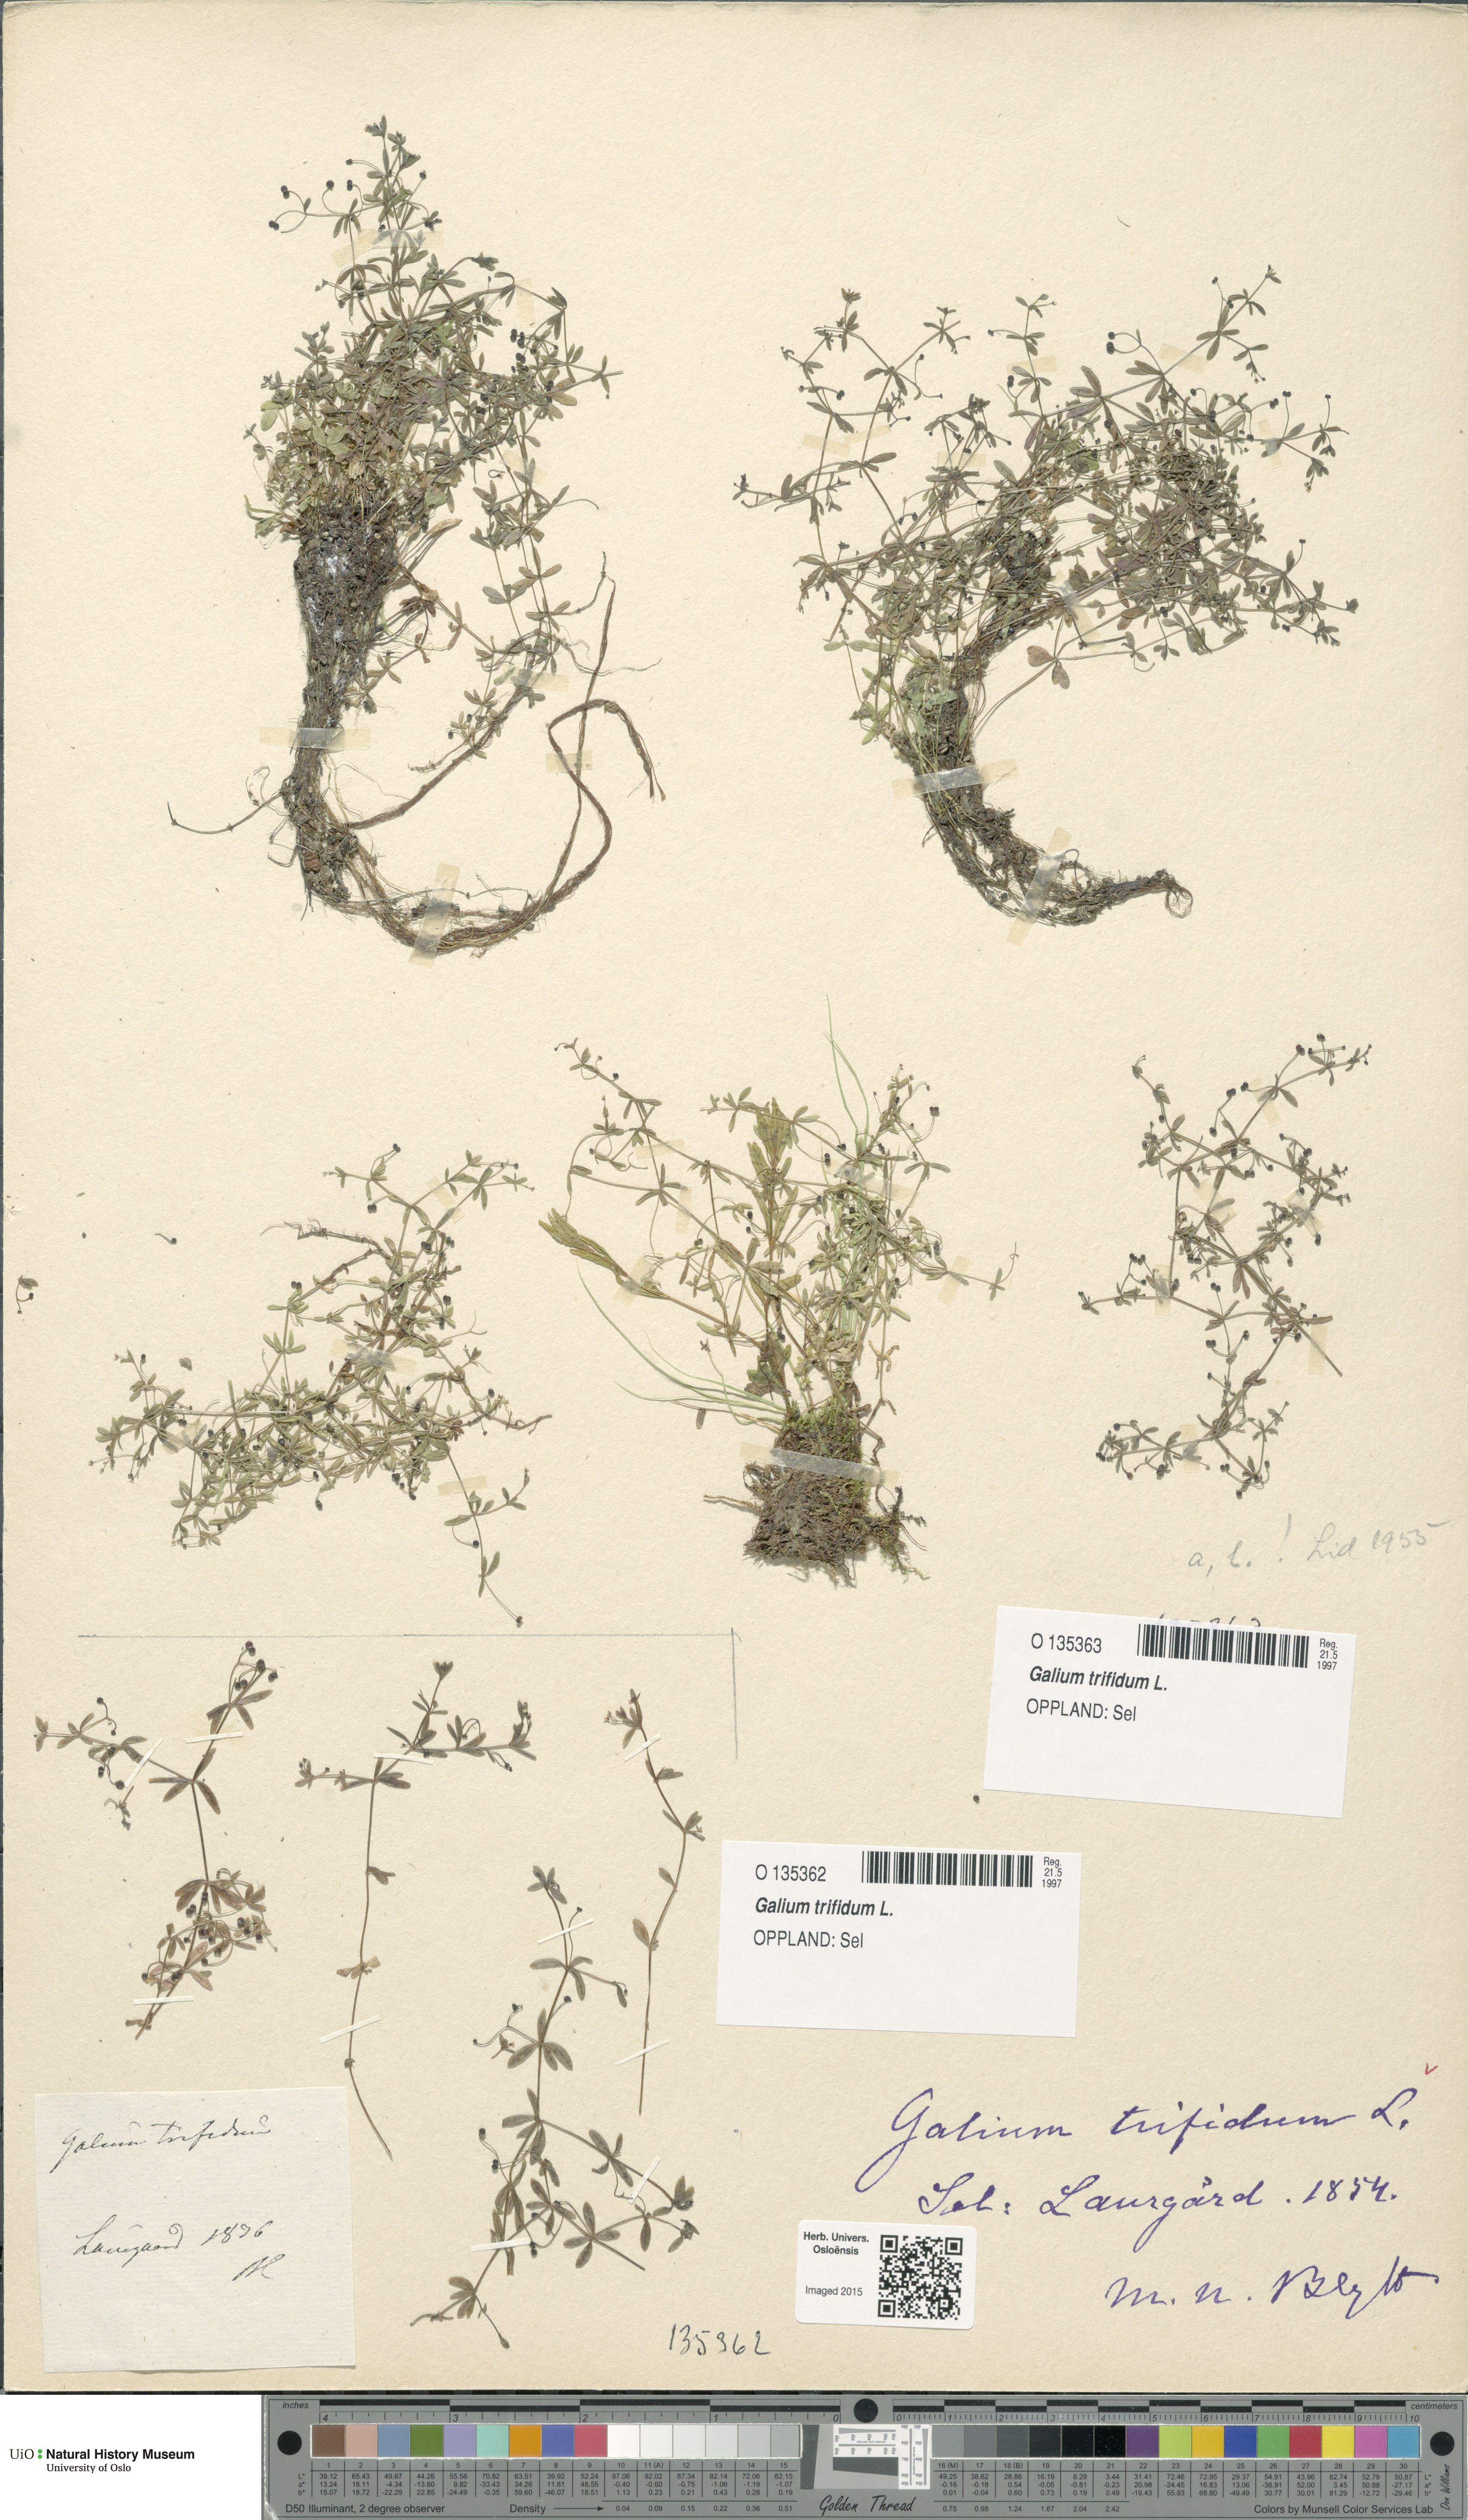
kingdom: Plantae
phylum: Tracheophyta
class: Magnoliopsida
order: Gentianales
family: Rubiaceae
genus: Galium
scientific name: Galium trifidum
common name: Small bedstraw
